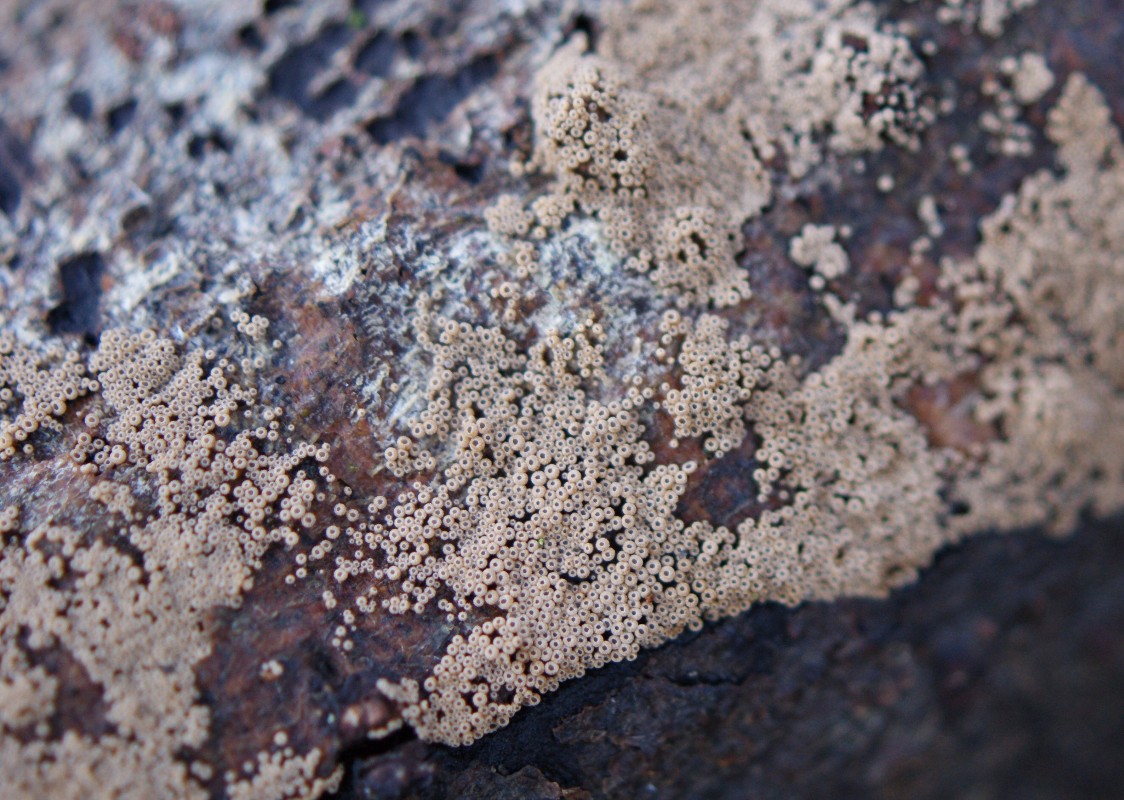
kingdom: Fungi
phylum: Basidiomycota
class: Agaricomycetes
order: Agaricales
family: Niaceae
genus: Merismodes
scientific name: Merismodes anomala
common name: almindelig læderskål
